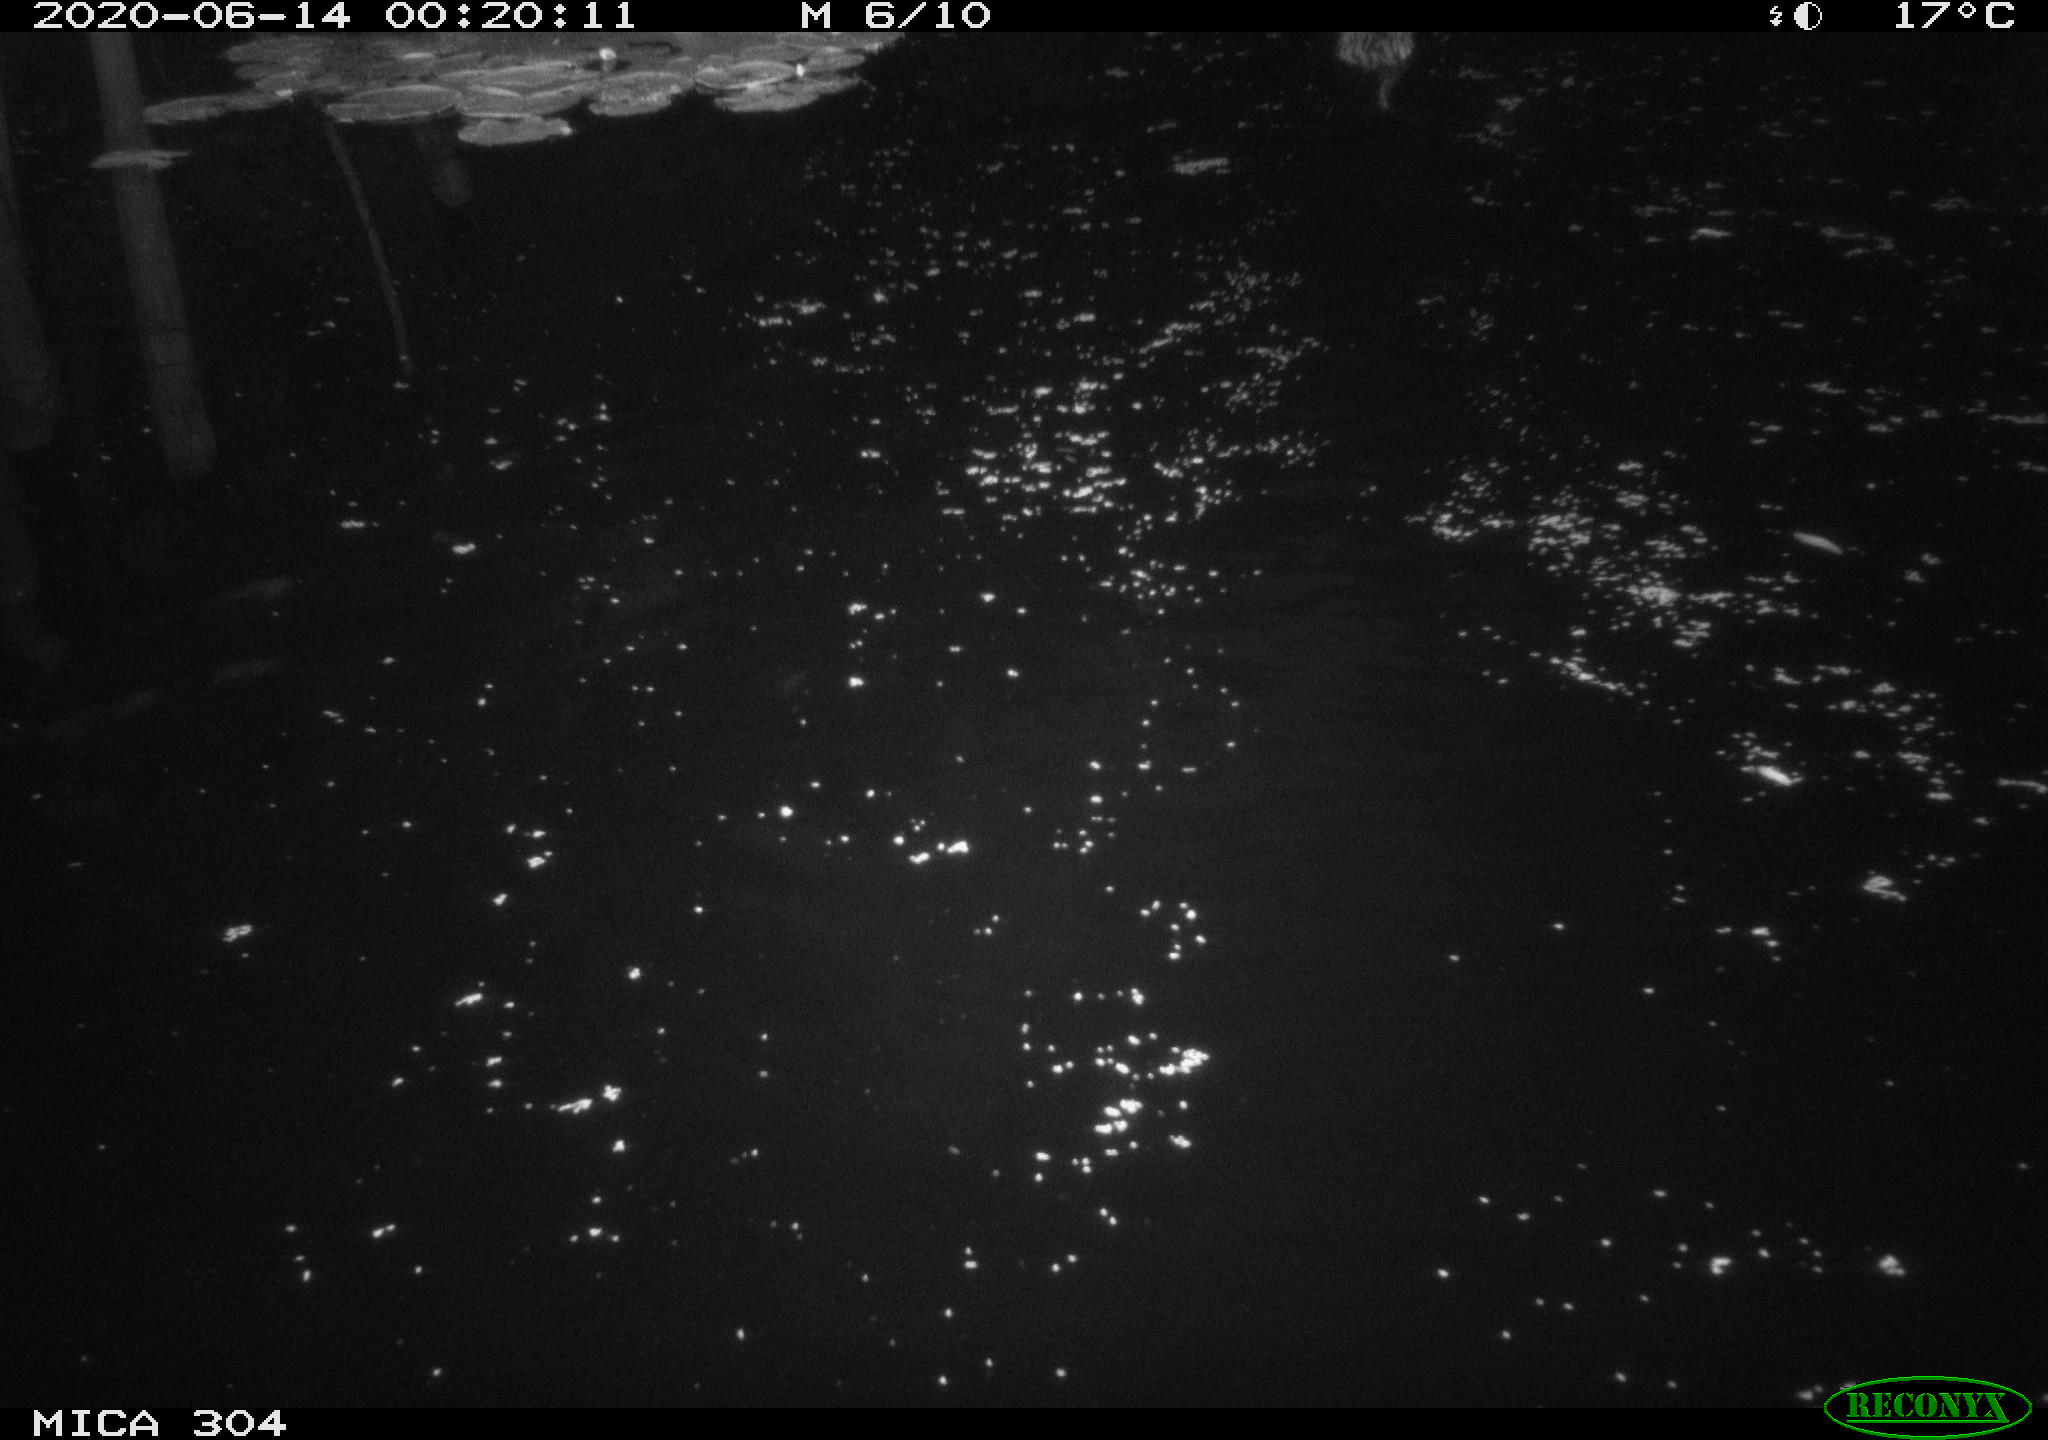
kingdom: Animalia
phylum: Chordata
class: Mammalia
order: Rodentia
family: Cricetidae
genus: Ondatra
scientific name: Ondatra zibethicus
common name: Muskrat
